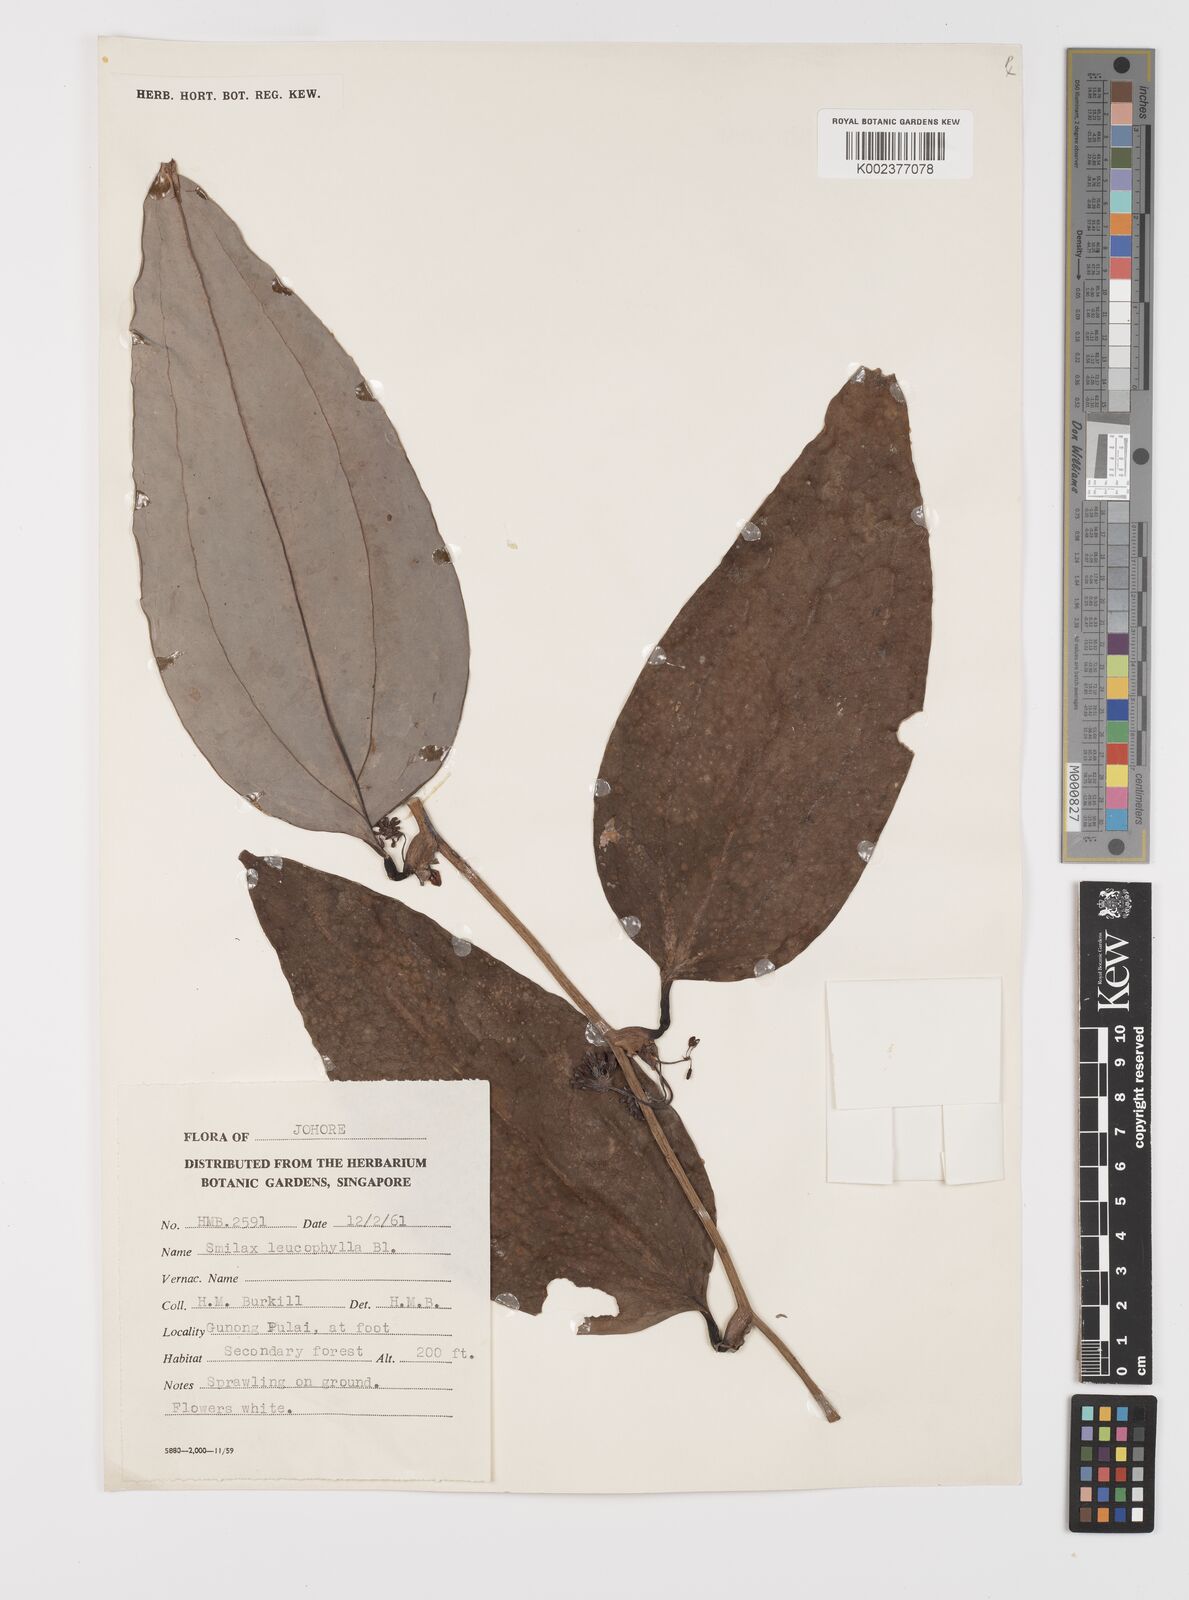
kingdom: Plantae
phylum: Tracheophyta
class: Liliopsida
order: Liliales
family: Smilacaceae
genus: Smilax
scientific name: Smilax leucophylla
